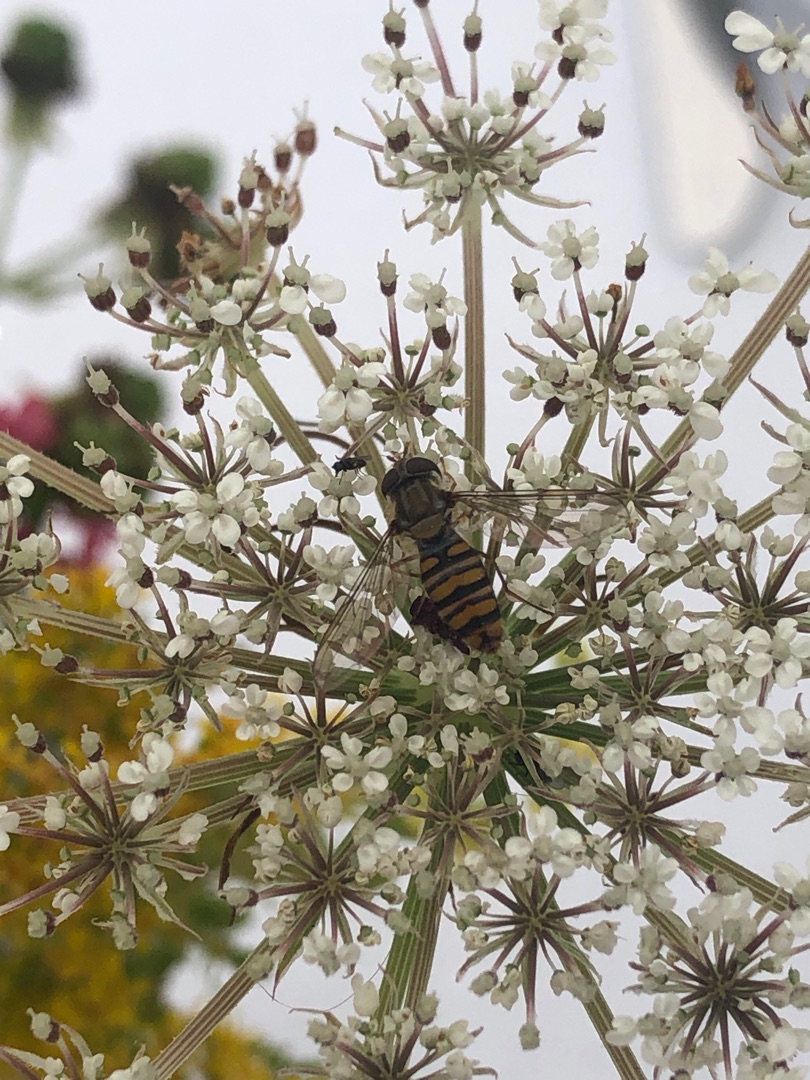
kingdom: Animalia
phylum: Arthropoda
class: Insecta
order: Diptera
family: Syrphidae
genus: Episyrphus
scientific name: Episyrphus balteatus
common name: Dobbeltbåndet svirreflue
